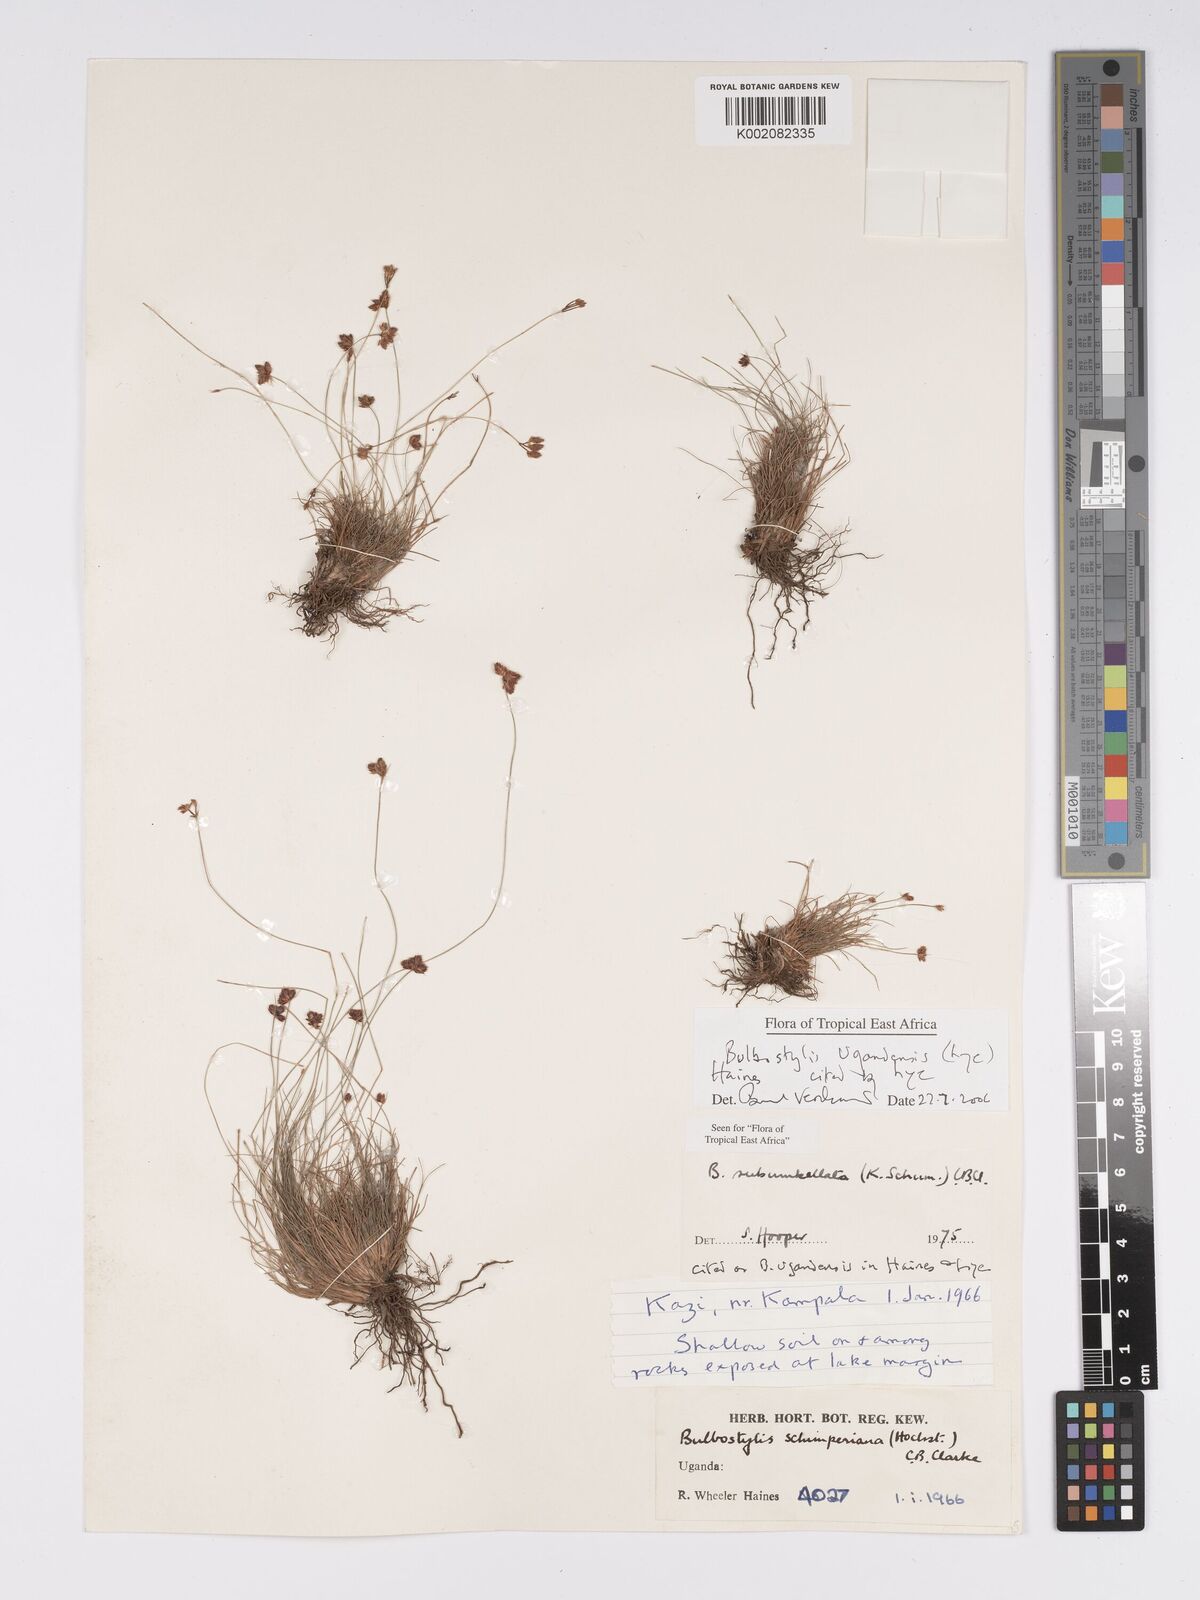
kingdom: Plantae
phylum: Tracheophyta
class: Liliopsida
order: Poales
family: Cyperaceae
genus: Bulbostylis
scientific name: Bulbostylis ugandensis
